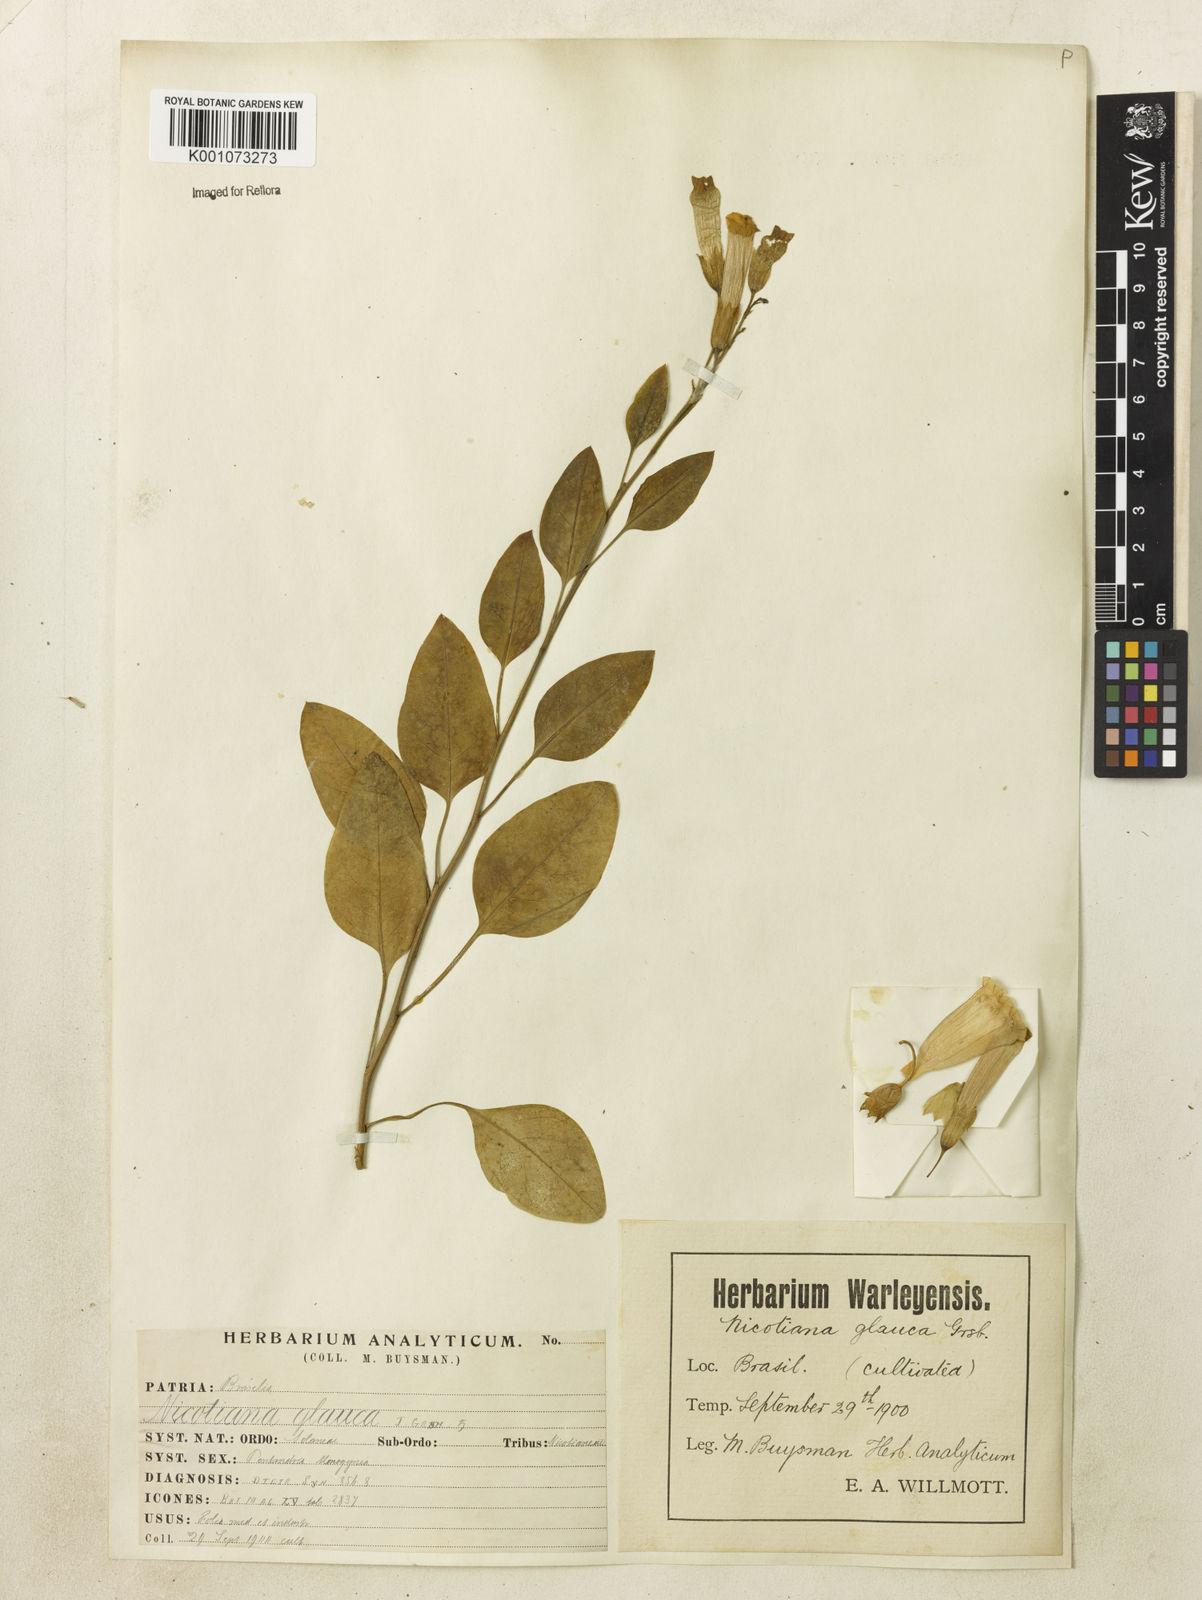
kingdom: Plantae
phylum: Tracheophyta
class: Magnoliopsida
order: Solanales
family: Solanaceae
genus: Nicotiana
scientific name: Nicotiana glauca
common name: Tree tobacco
